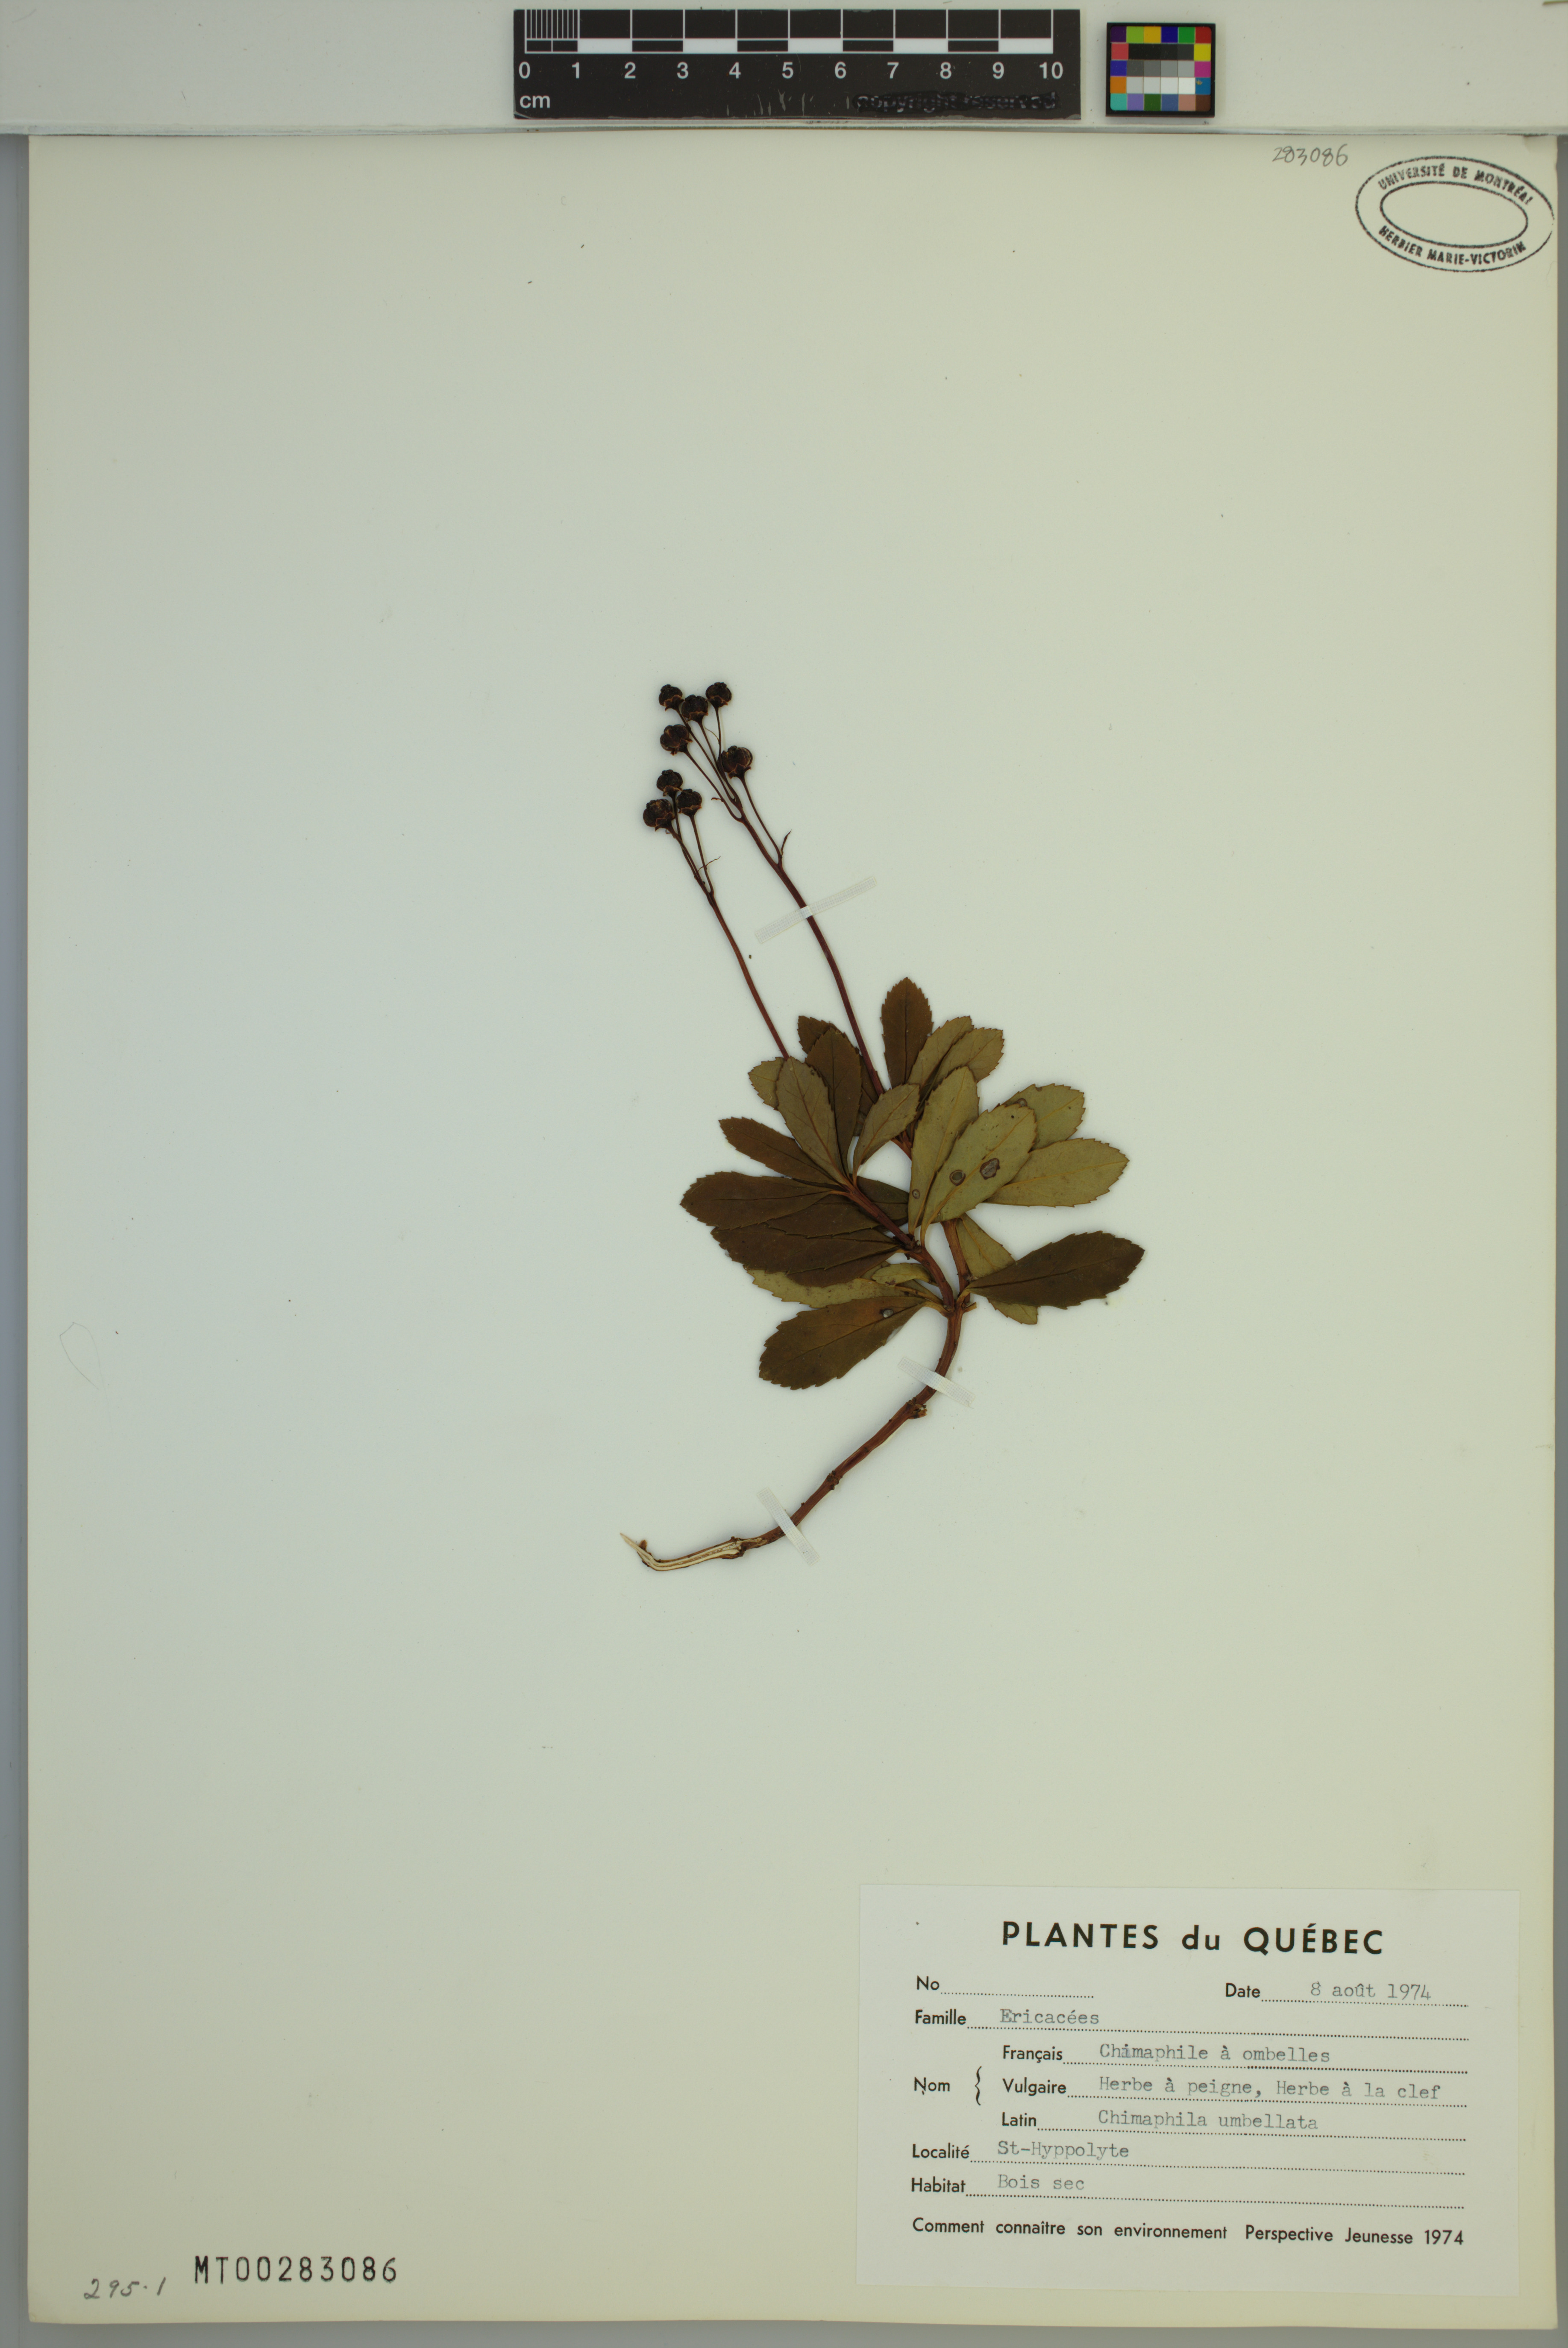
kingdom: Plantae
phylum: Tracheophyta
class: Magnoliopsida
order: Ericales
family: Ericaceae
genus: Chimaphila
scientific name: Chimaphila umbellata
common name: Pipsissewa
